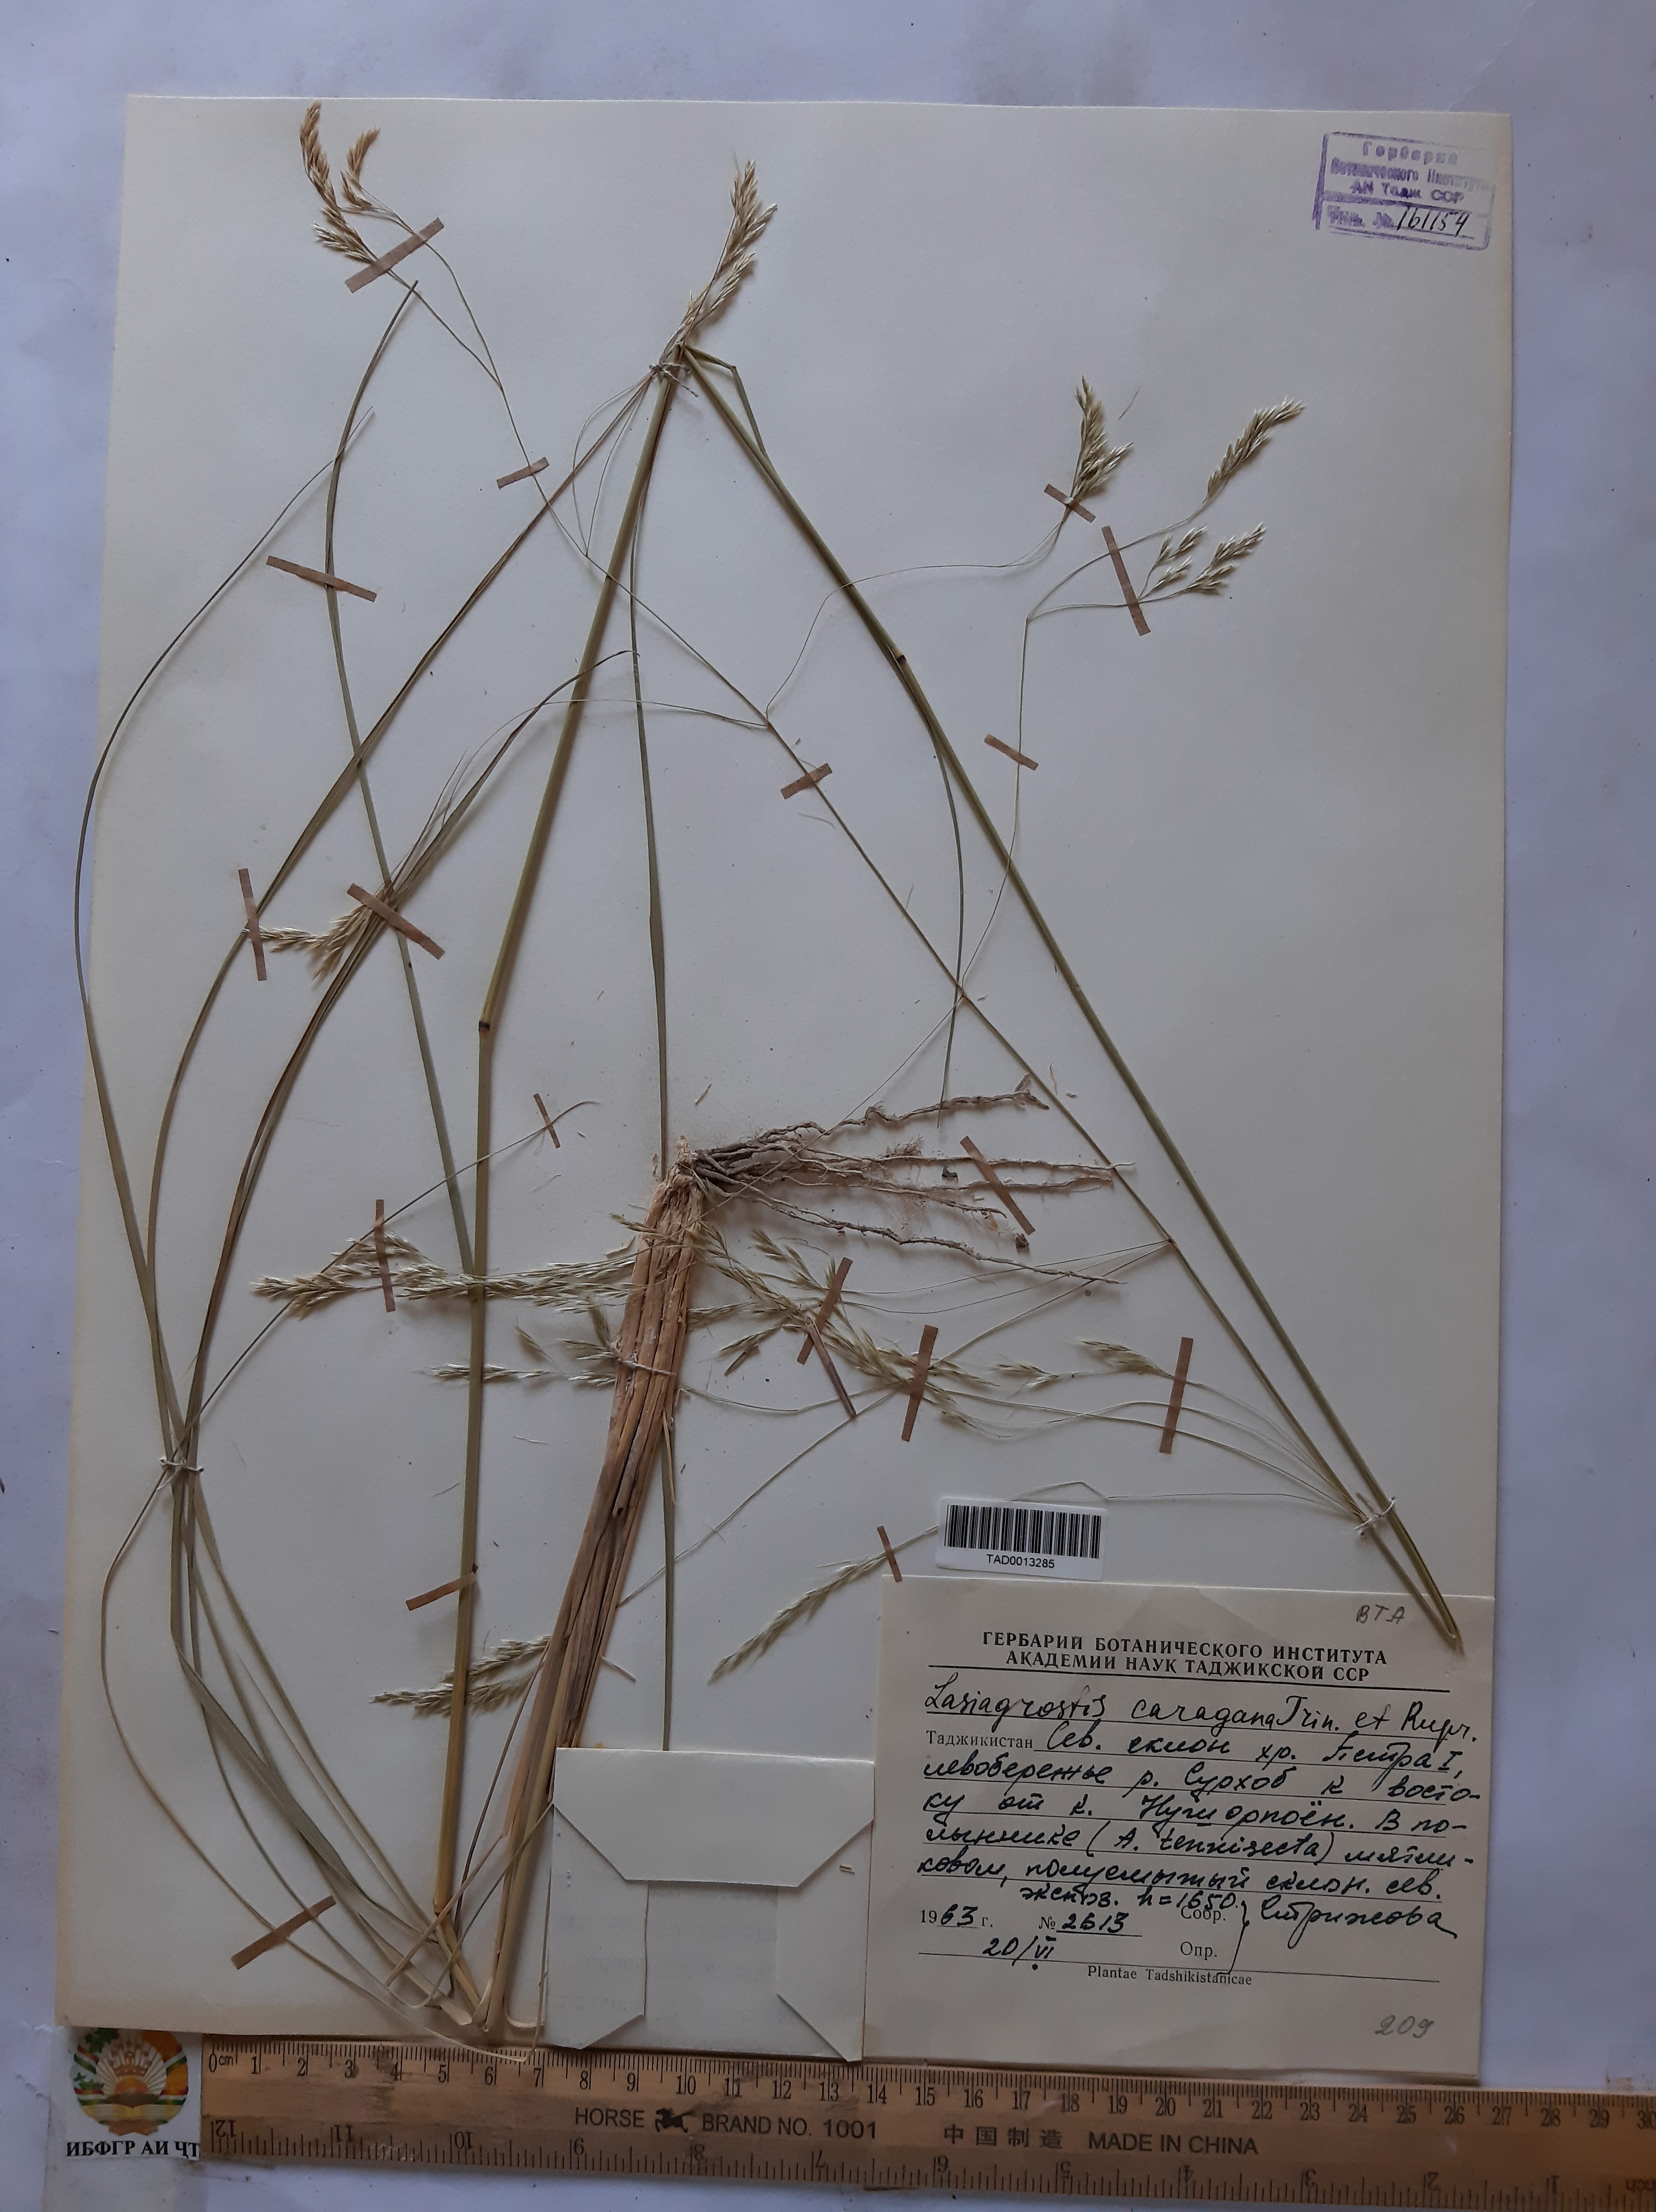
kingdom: Plantae
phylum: Tracheophyta
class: Liliopsida
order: Poales
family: Poaceae
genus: Stipa
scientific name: Stipa conferta
